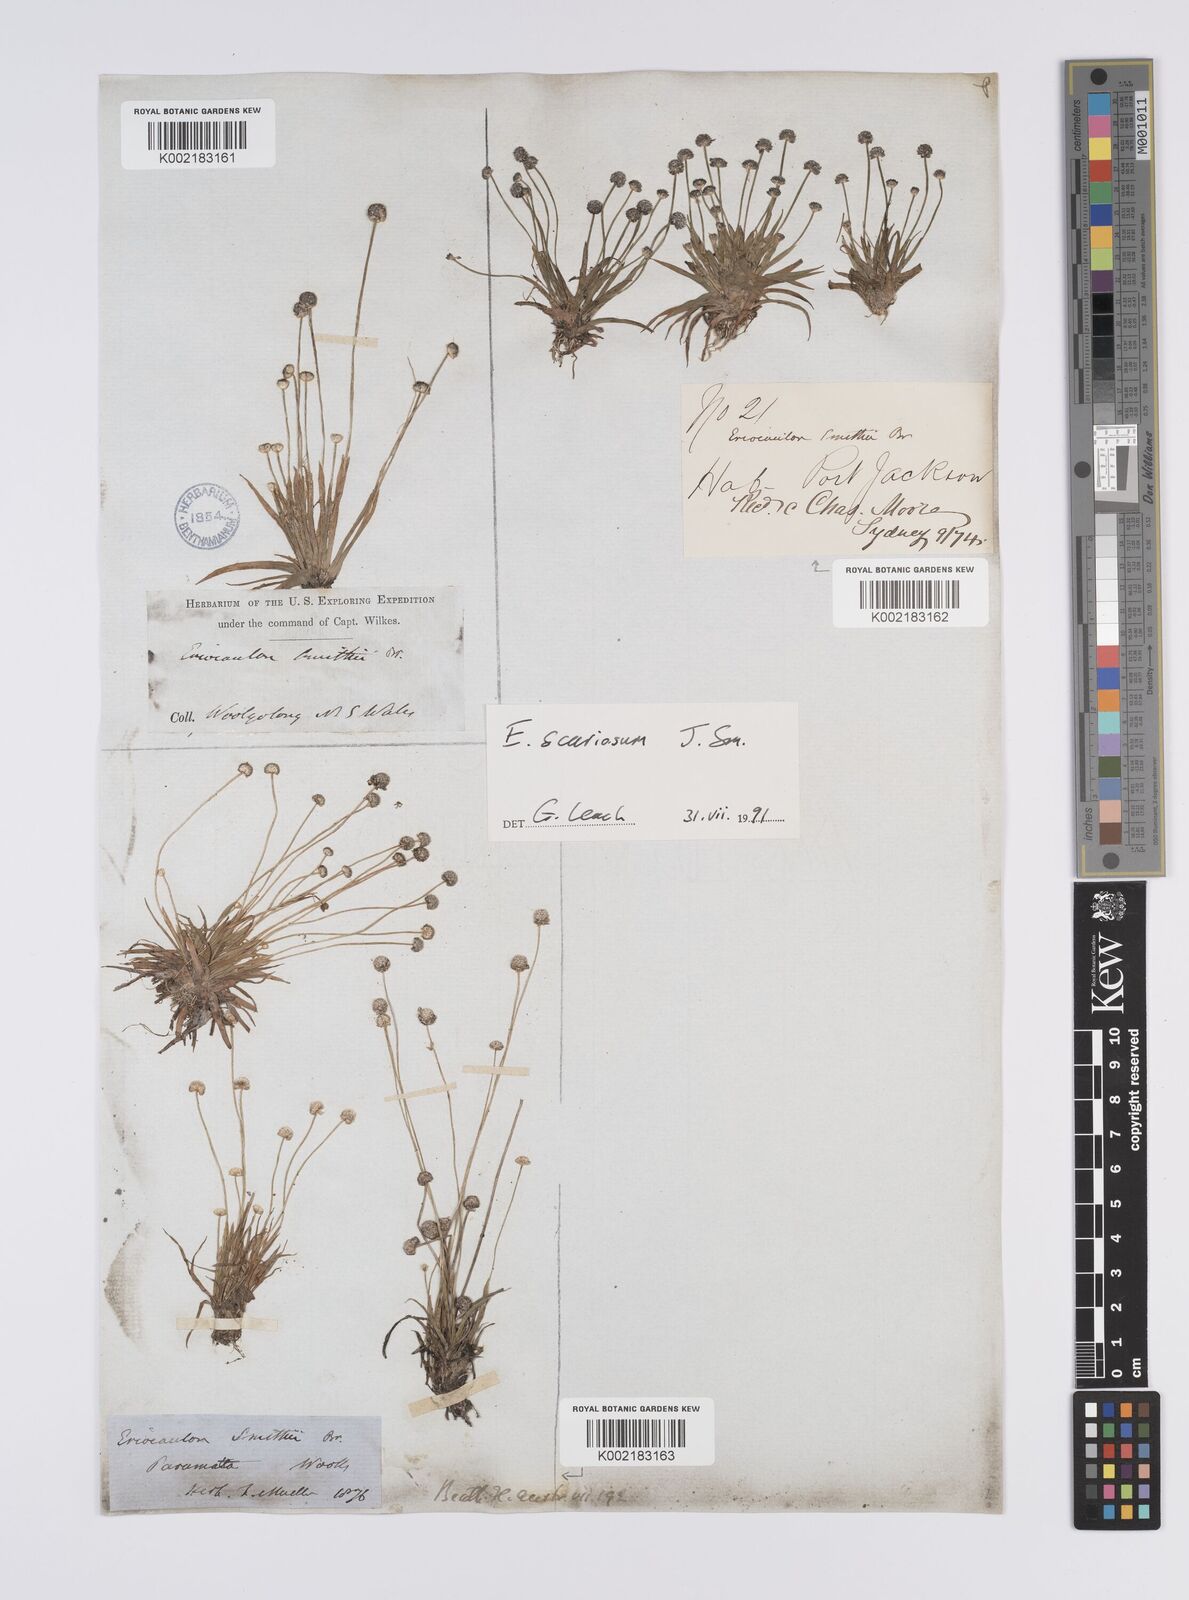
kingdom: Plantae
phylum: Tracheophyta
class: Liliopsida
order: Poales
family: Eriocaulaceae
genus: Eriocaulon
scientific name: Eriocaulon scariosum
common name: Rough pipewort
